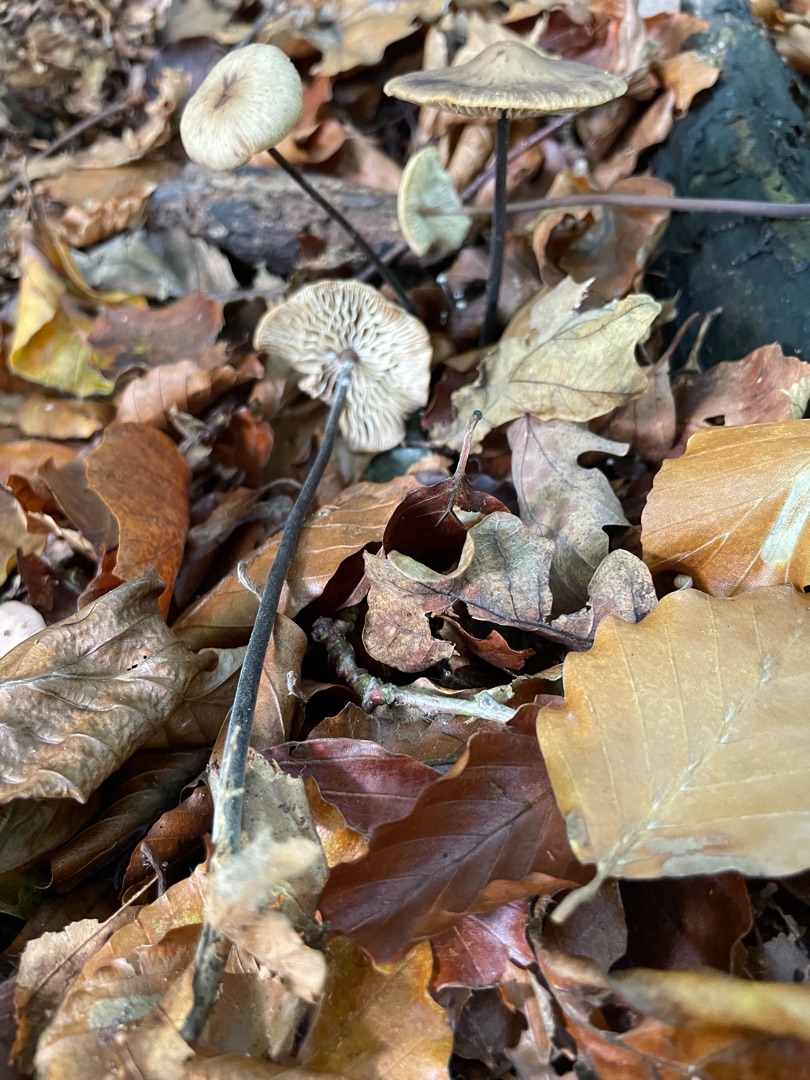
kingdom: Fungi
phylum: Basidiomycota
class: Agaricomycetes
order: Agaricales
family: Omphalotaceae
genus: Mycetinis
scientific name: Mycetinis alliaceus
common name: Stor løghat
